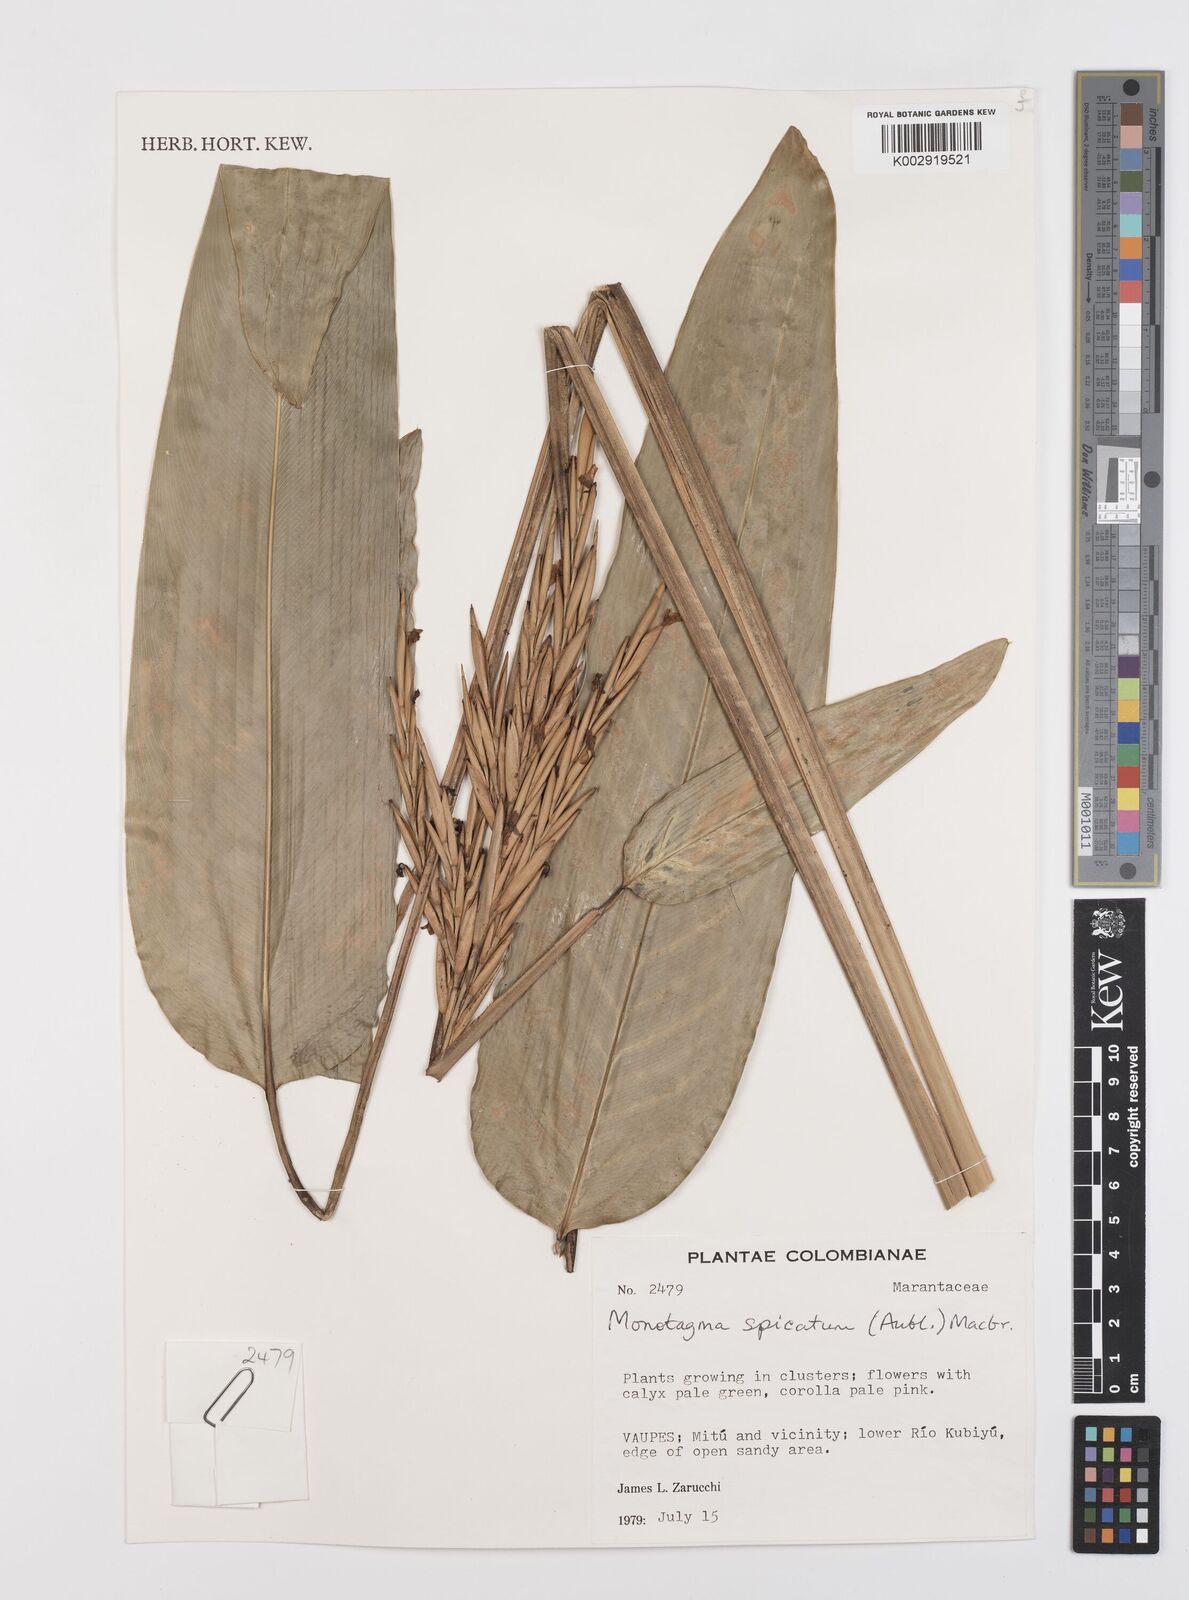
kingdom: Plantae
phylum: Tracheophyta
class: Liliopsida
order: Zingiberales
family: Marantaceae
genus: Monotagma
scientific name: Monotagma laxum
